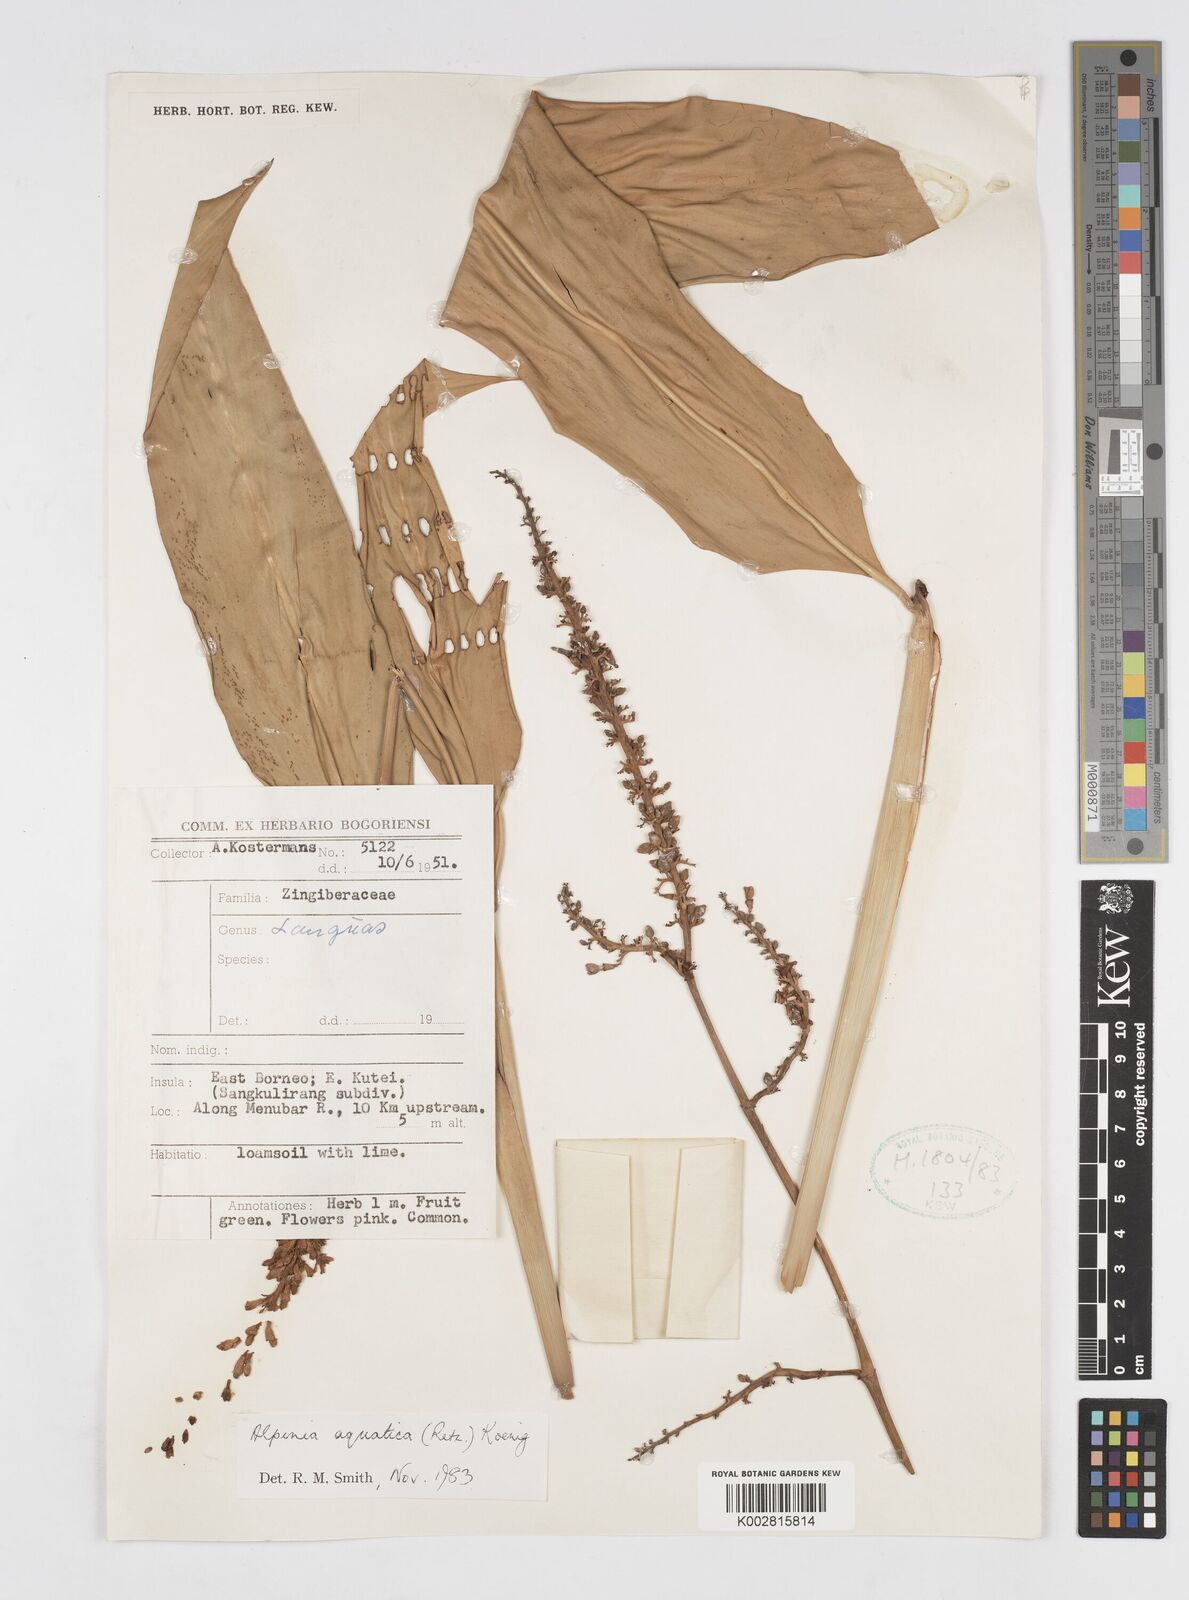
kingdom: Plantae
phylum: Tracheophyta
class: Liliopsida
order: Zingiberales
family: Zingiberaceae
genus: Alpinia
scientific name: Alpinia aquatica
